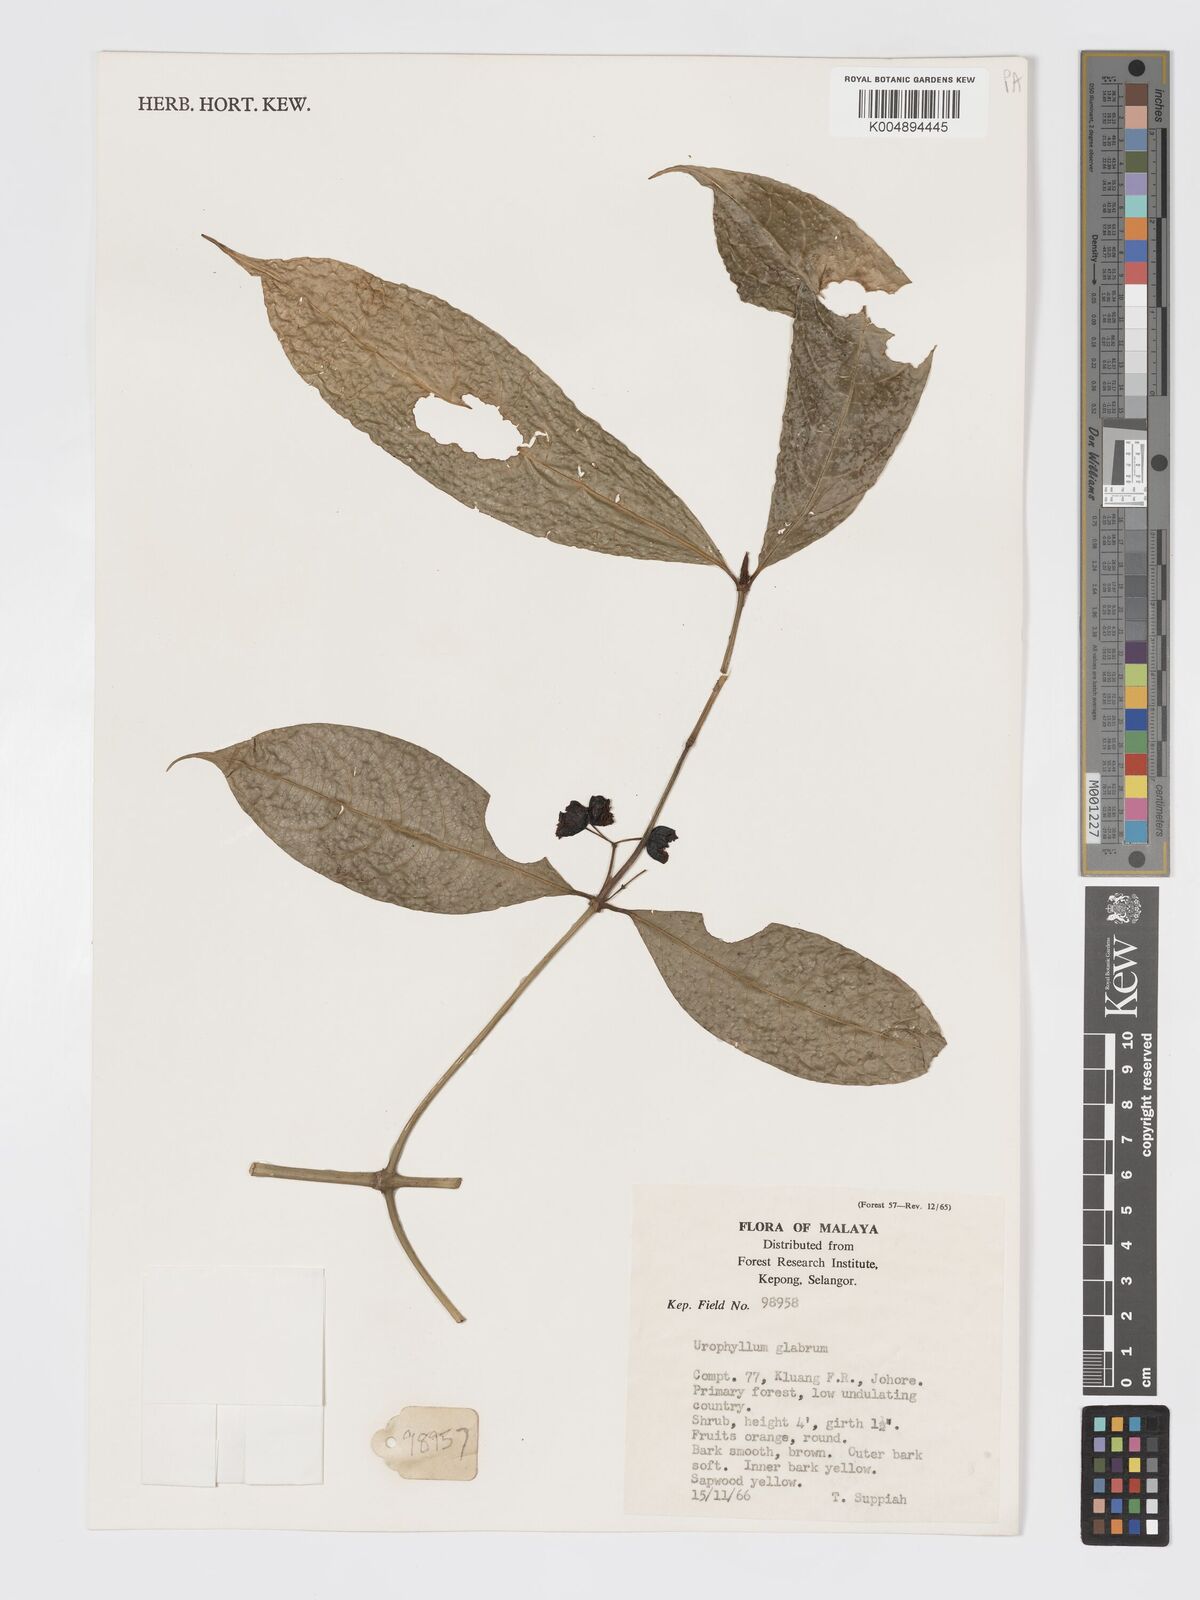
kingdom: Plantae
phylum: Tracheophyta
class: Magnoliopsida
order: Gentianales
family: Rubiaceae
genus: Urophyllum
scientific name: Urophyllum griffithianum
